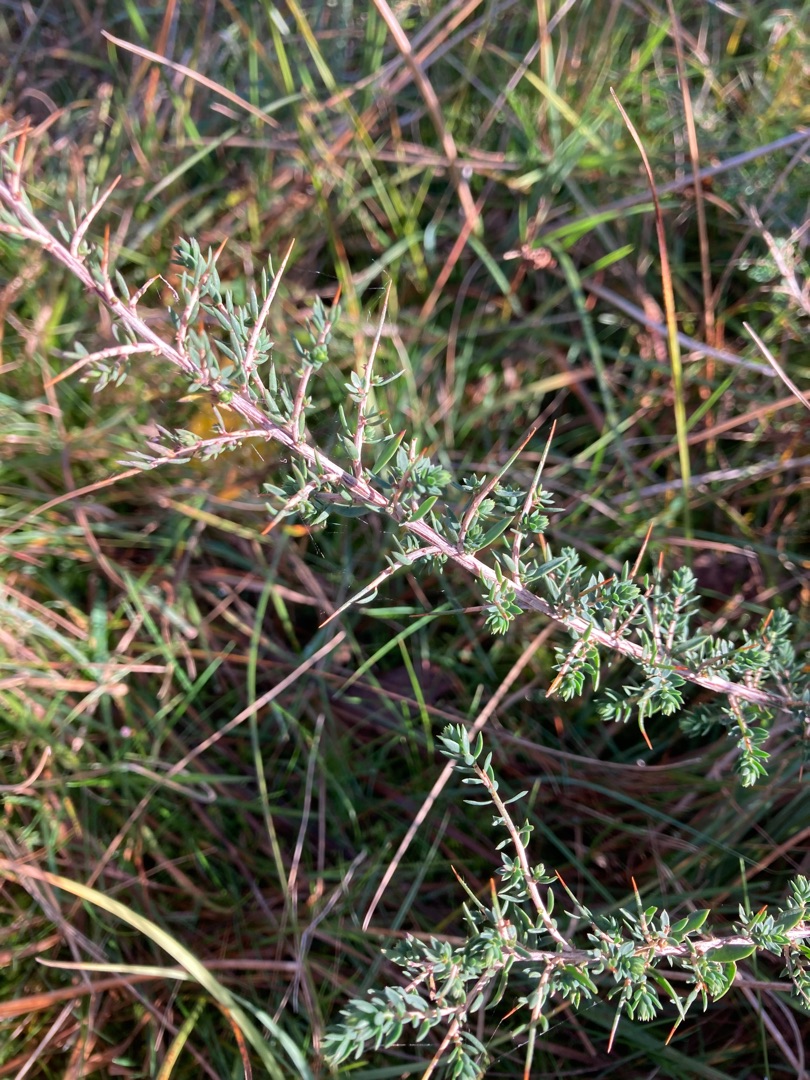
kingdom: Plantae
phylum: Tracheophyta
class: Magnoliopsida
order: Fabales
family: Fabaceae
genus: Genista
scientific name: Genista anglica
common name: Engelsk visse
